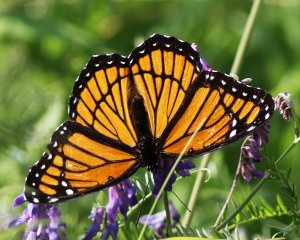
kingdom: Animalia
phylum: Arthropoda
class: Insecta
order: Lepidoptera
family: Nymphalidae
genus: Limenitis
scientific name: Limenitis archippus
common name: Viceroy
